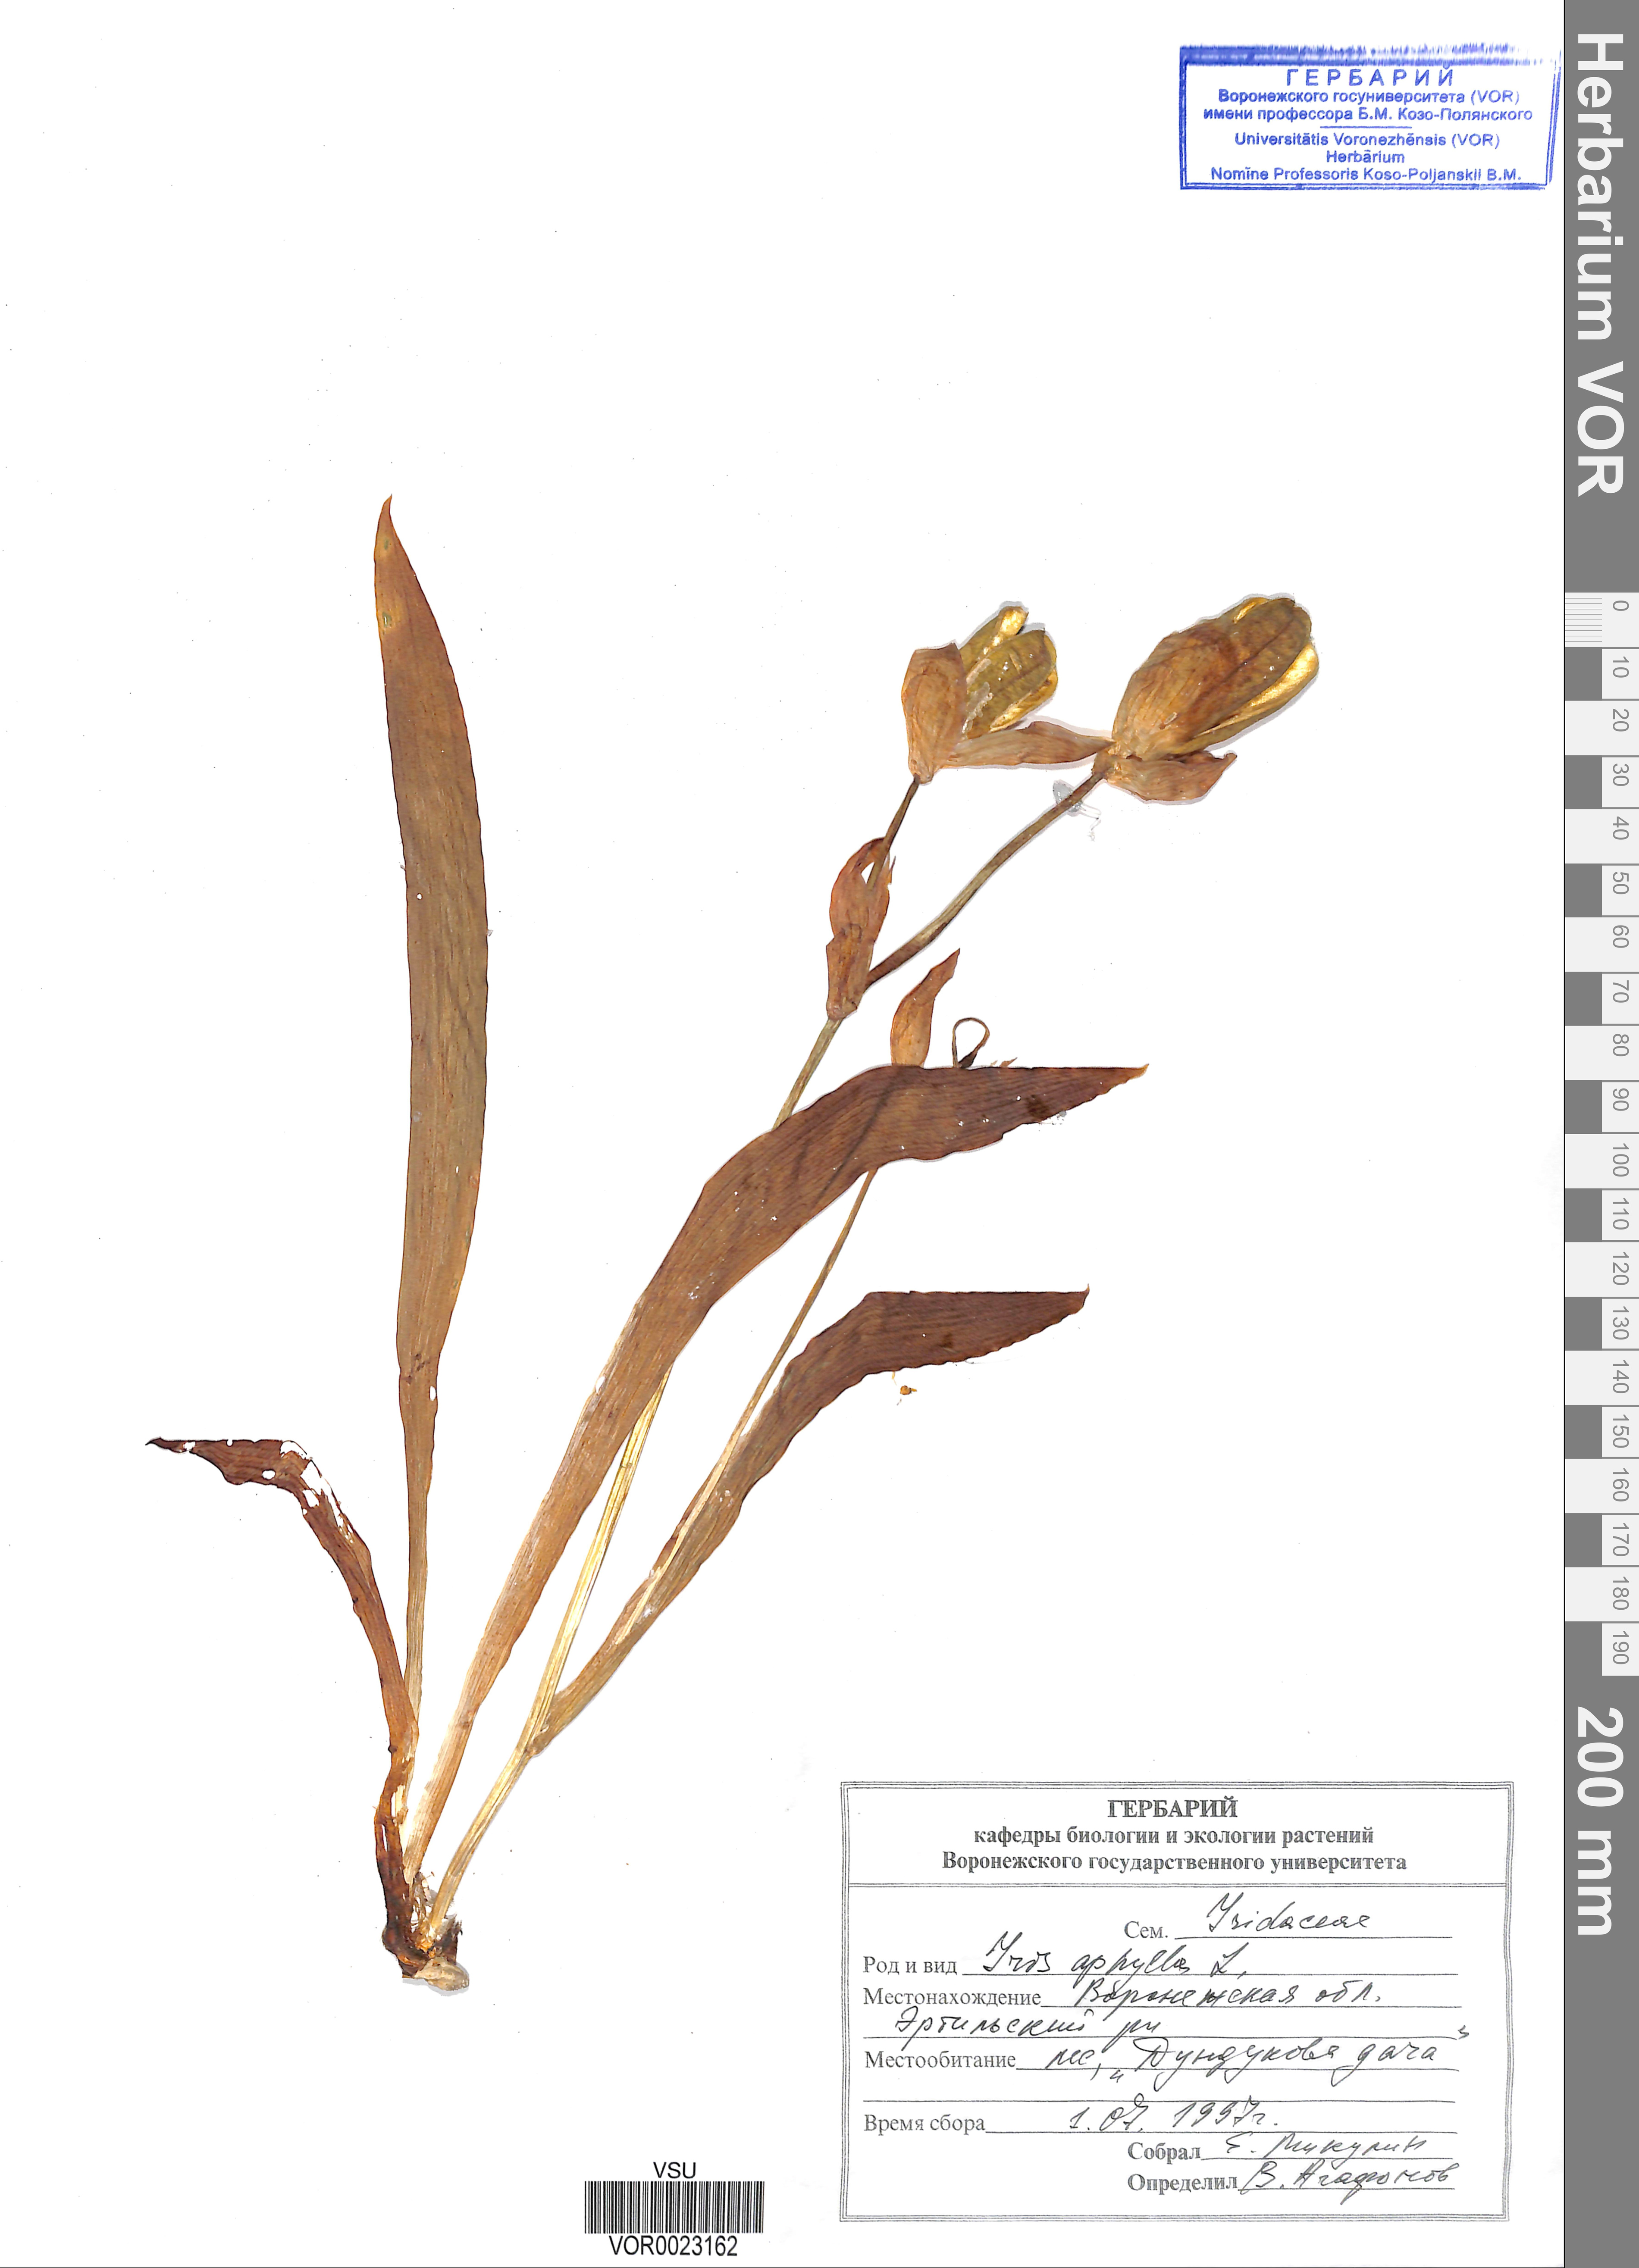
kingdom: Plantae
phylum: Tracheophyta
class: Liliopsida
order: Asparagales
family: Iridaceae
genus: Iris
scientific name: Iris aphylla
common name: Stool iris
